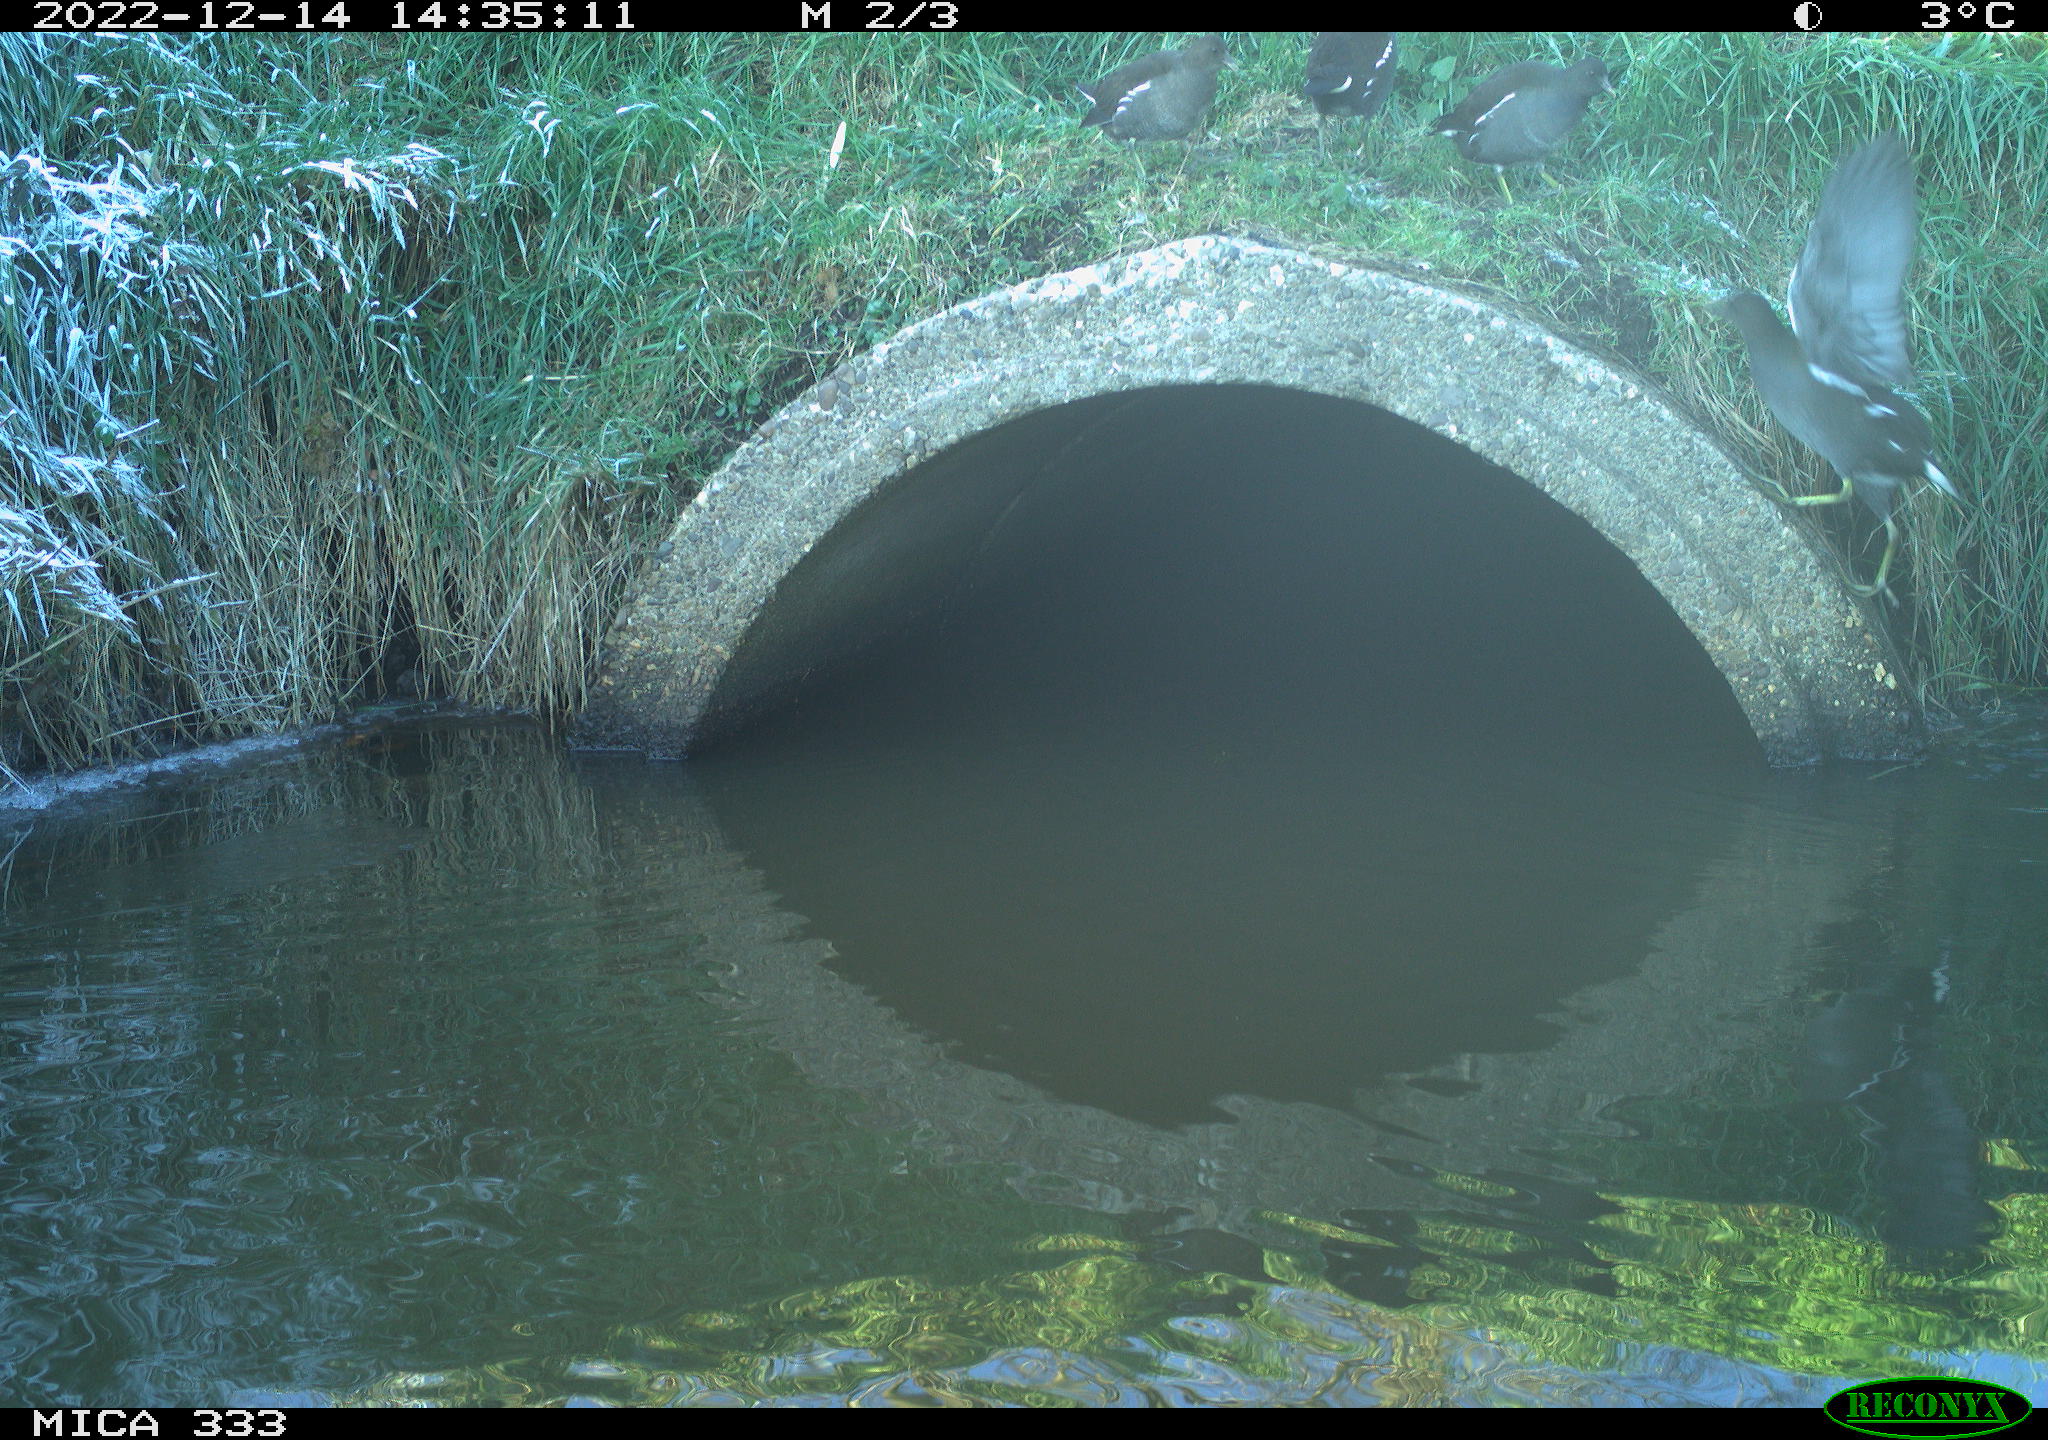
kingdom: Animalia
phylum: Chordata
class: Aves
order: Gruiformes
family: Rallidae
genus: Gallinula
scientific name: Gallinula chloropus
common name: Common moorhen
